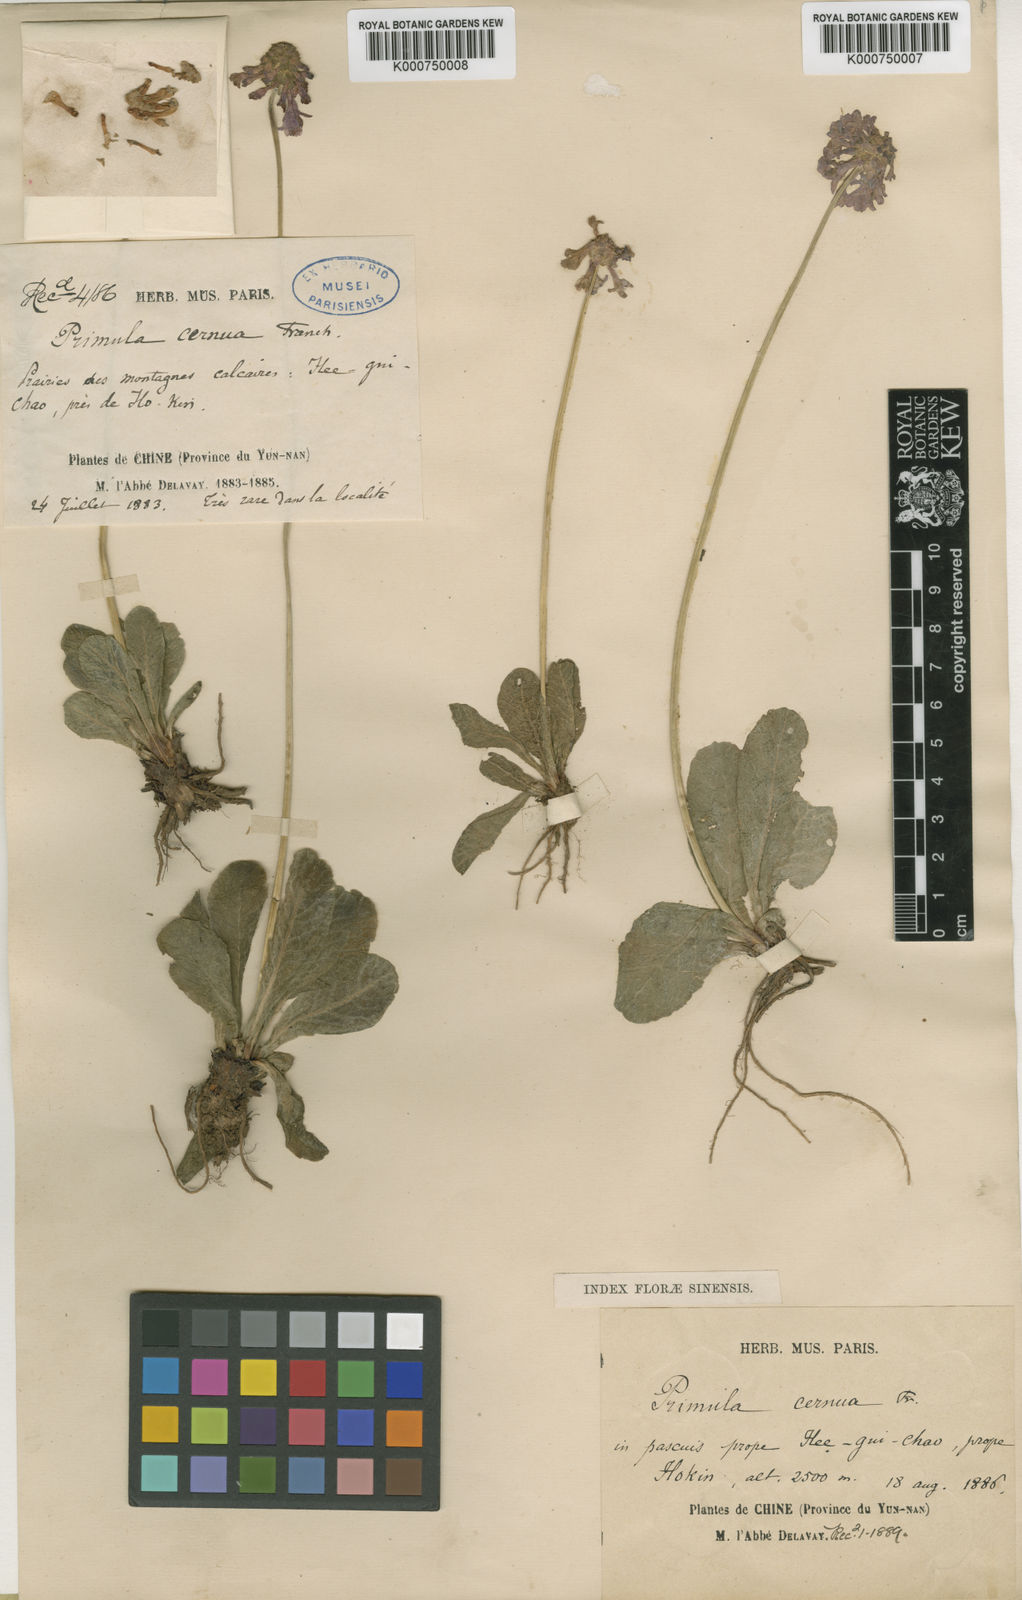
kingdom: Plantae
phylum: Tracheophyta
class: Magnoliopsida
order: Ericales
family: Primulaceae
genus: Primula
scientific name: Primula cernua
